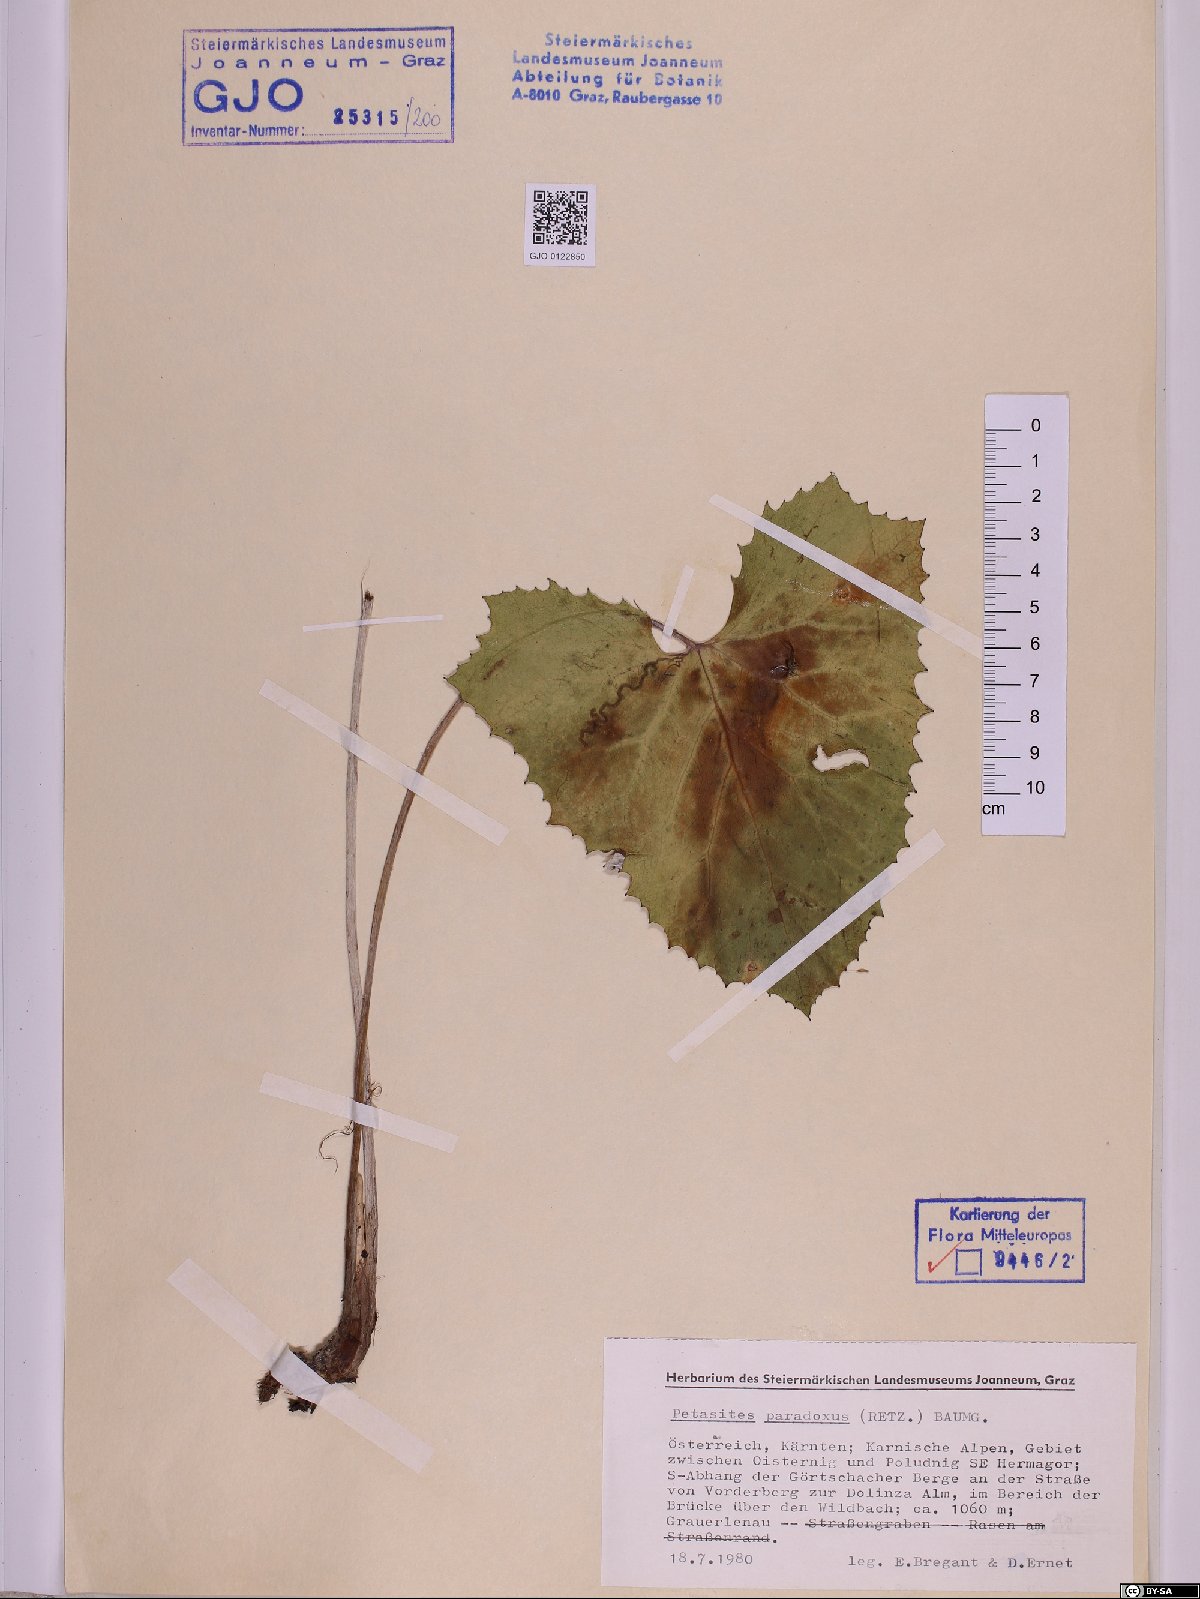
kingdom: Plantae
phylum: Tracheophyta
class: Magnoliopsida
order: Asterales
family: Asteraceae
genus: Petasites
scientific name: Petasites paradoxus
